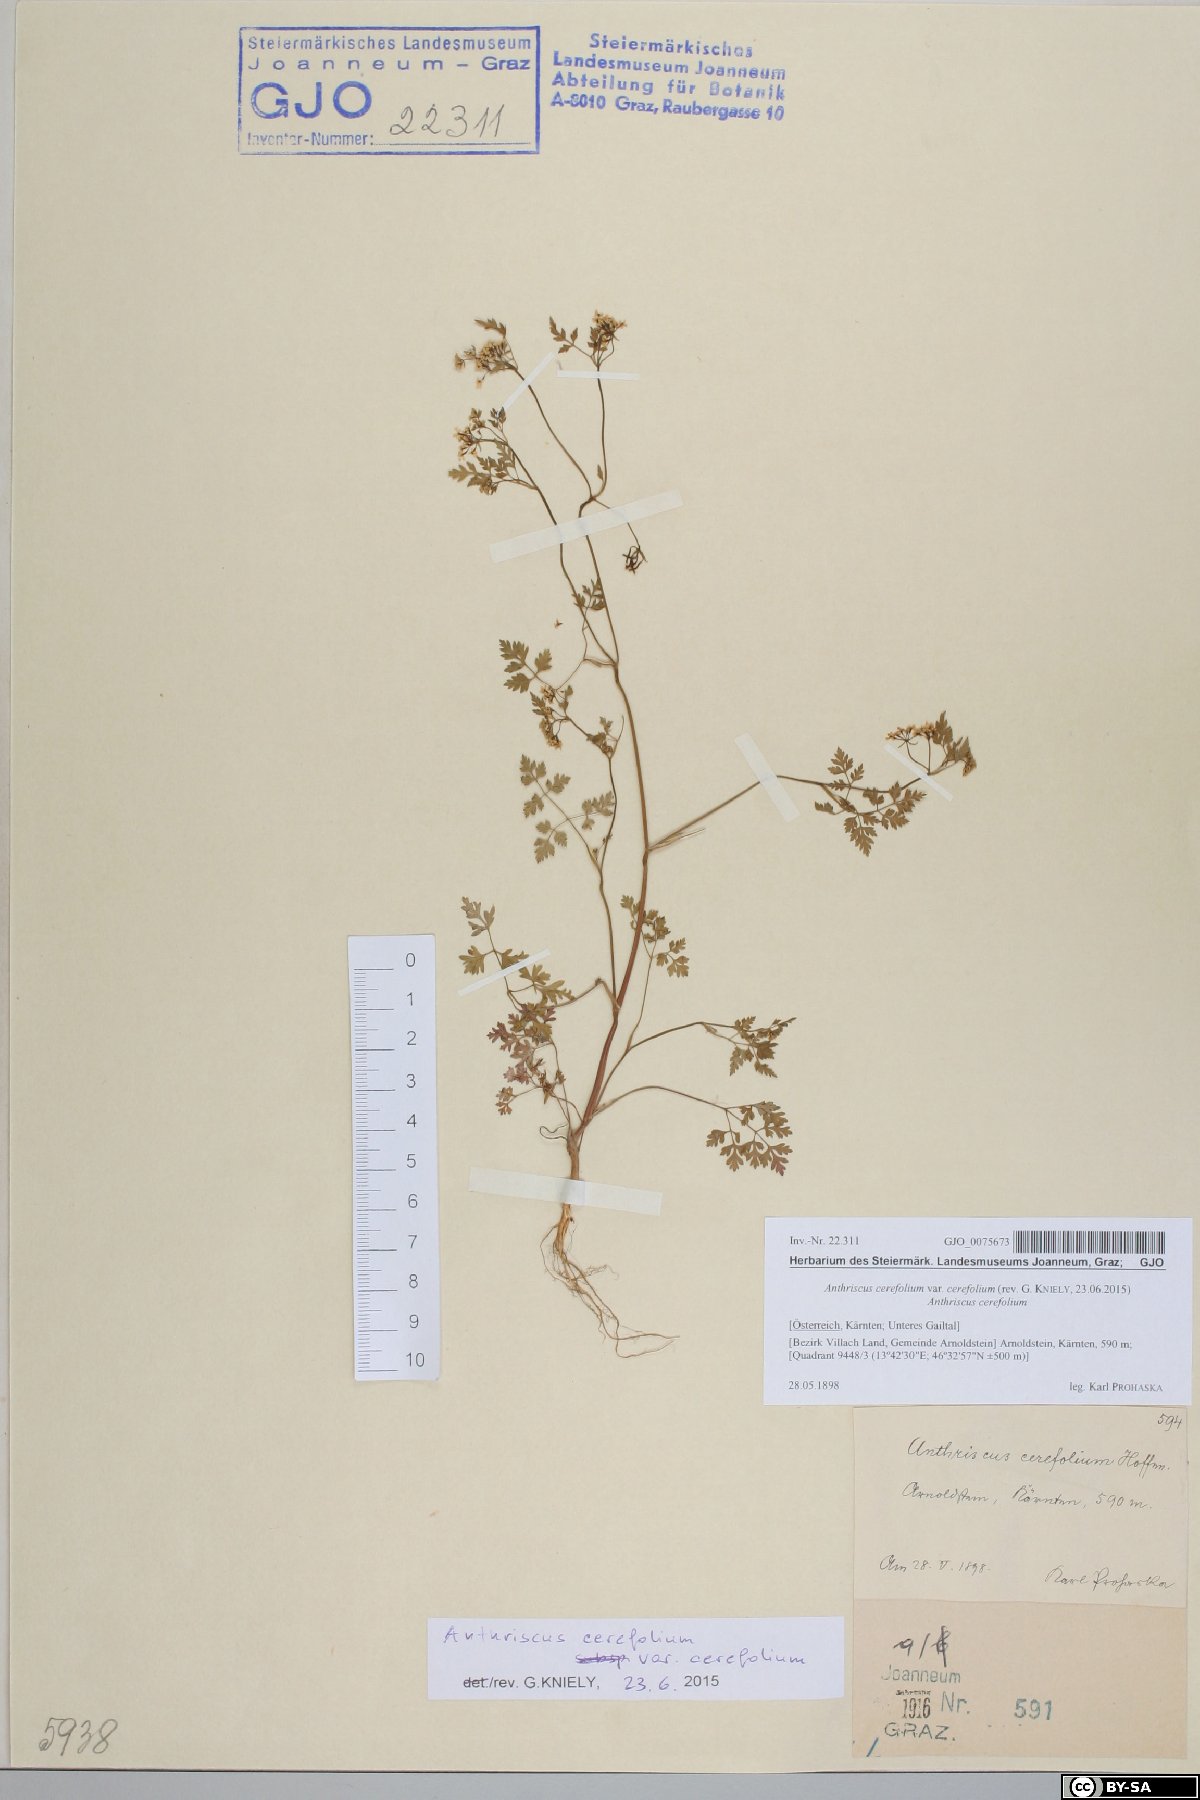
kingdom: Plantae
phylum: Tracheophyta
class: Magnoliopsida
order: Apiales
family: Apiaceae
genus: Anthriscus
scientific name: Anthriscus cerefolium
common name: Garden chervil
